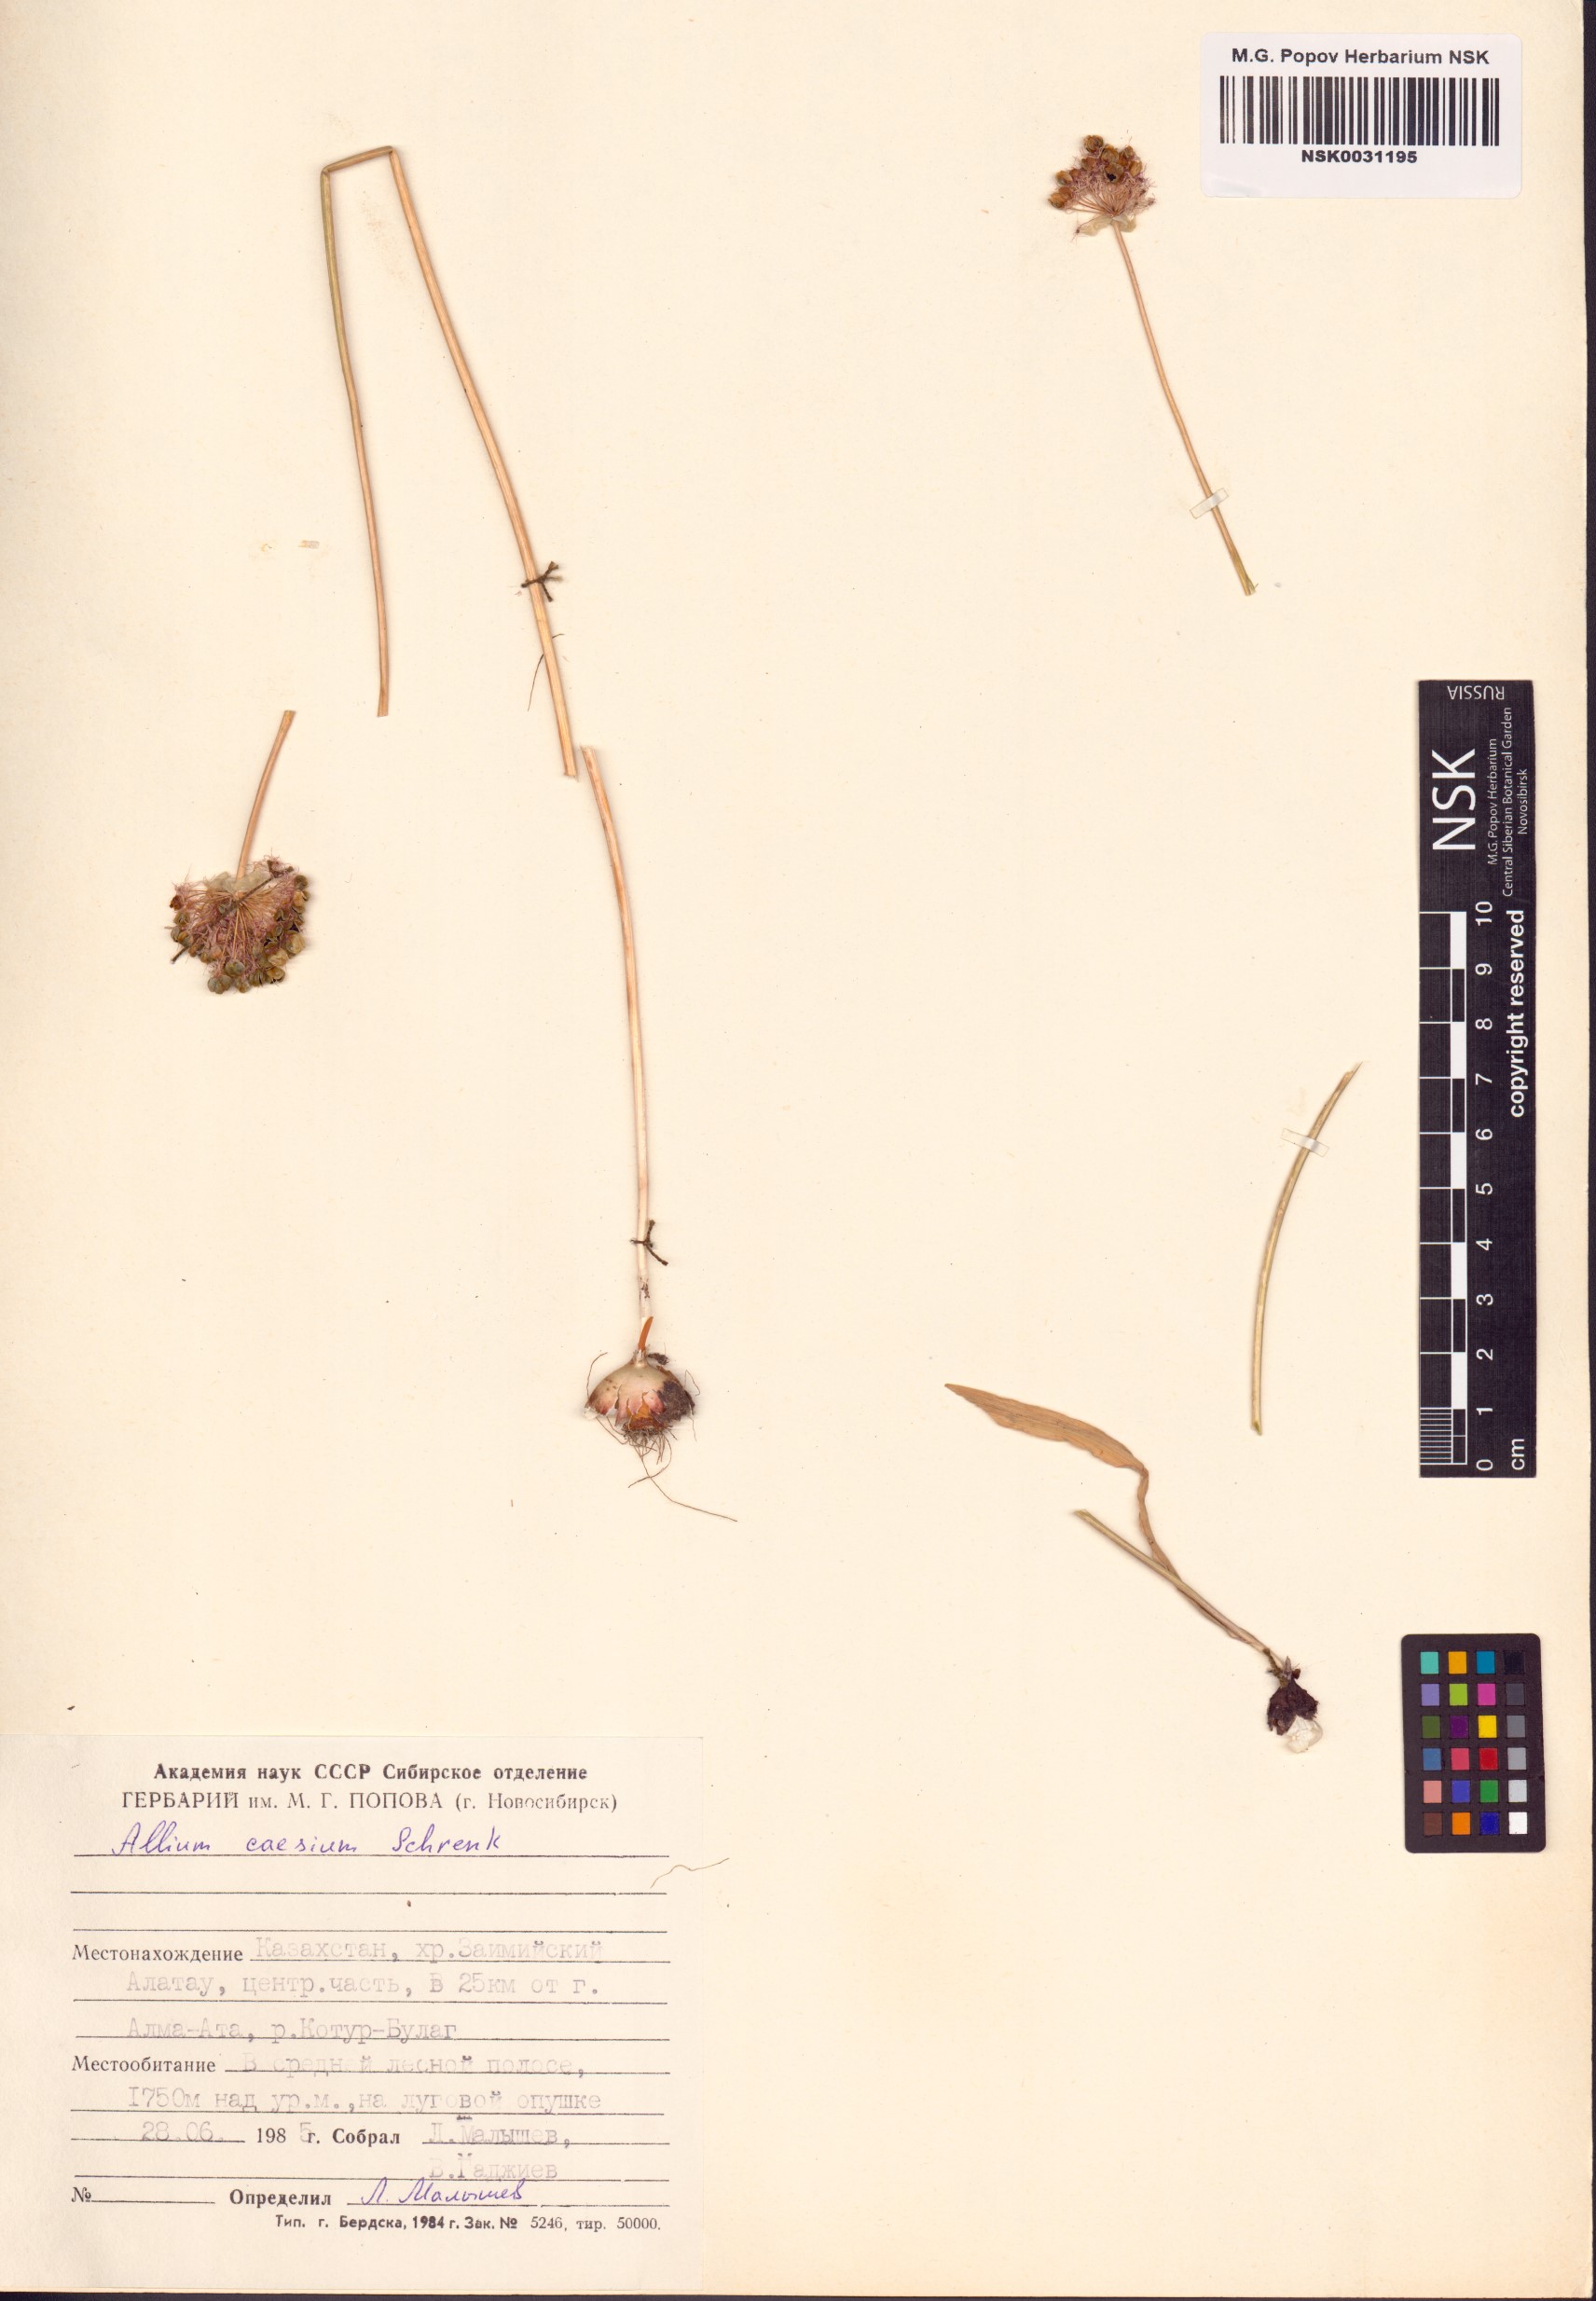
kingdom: Plantae
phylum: Tracheophyta
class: Liliopsida
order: Asparagales
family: Amaryllidaceae
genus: Allium
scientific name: Allium caesium
